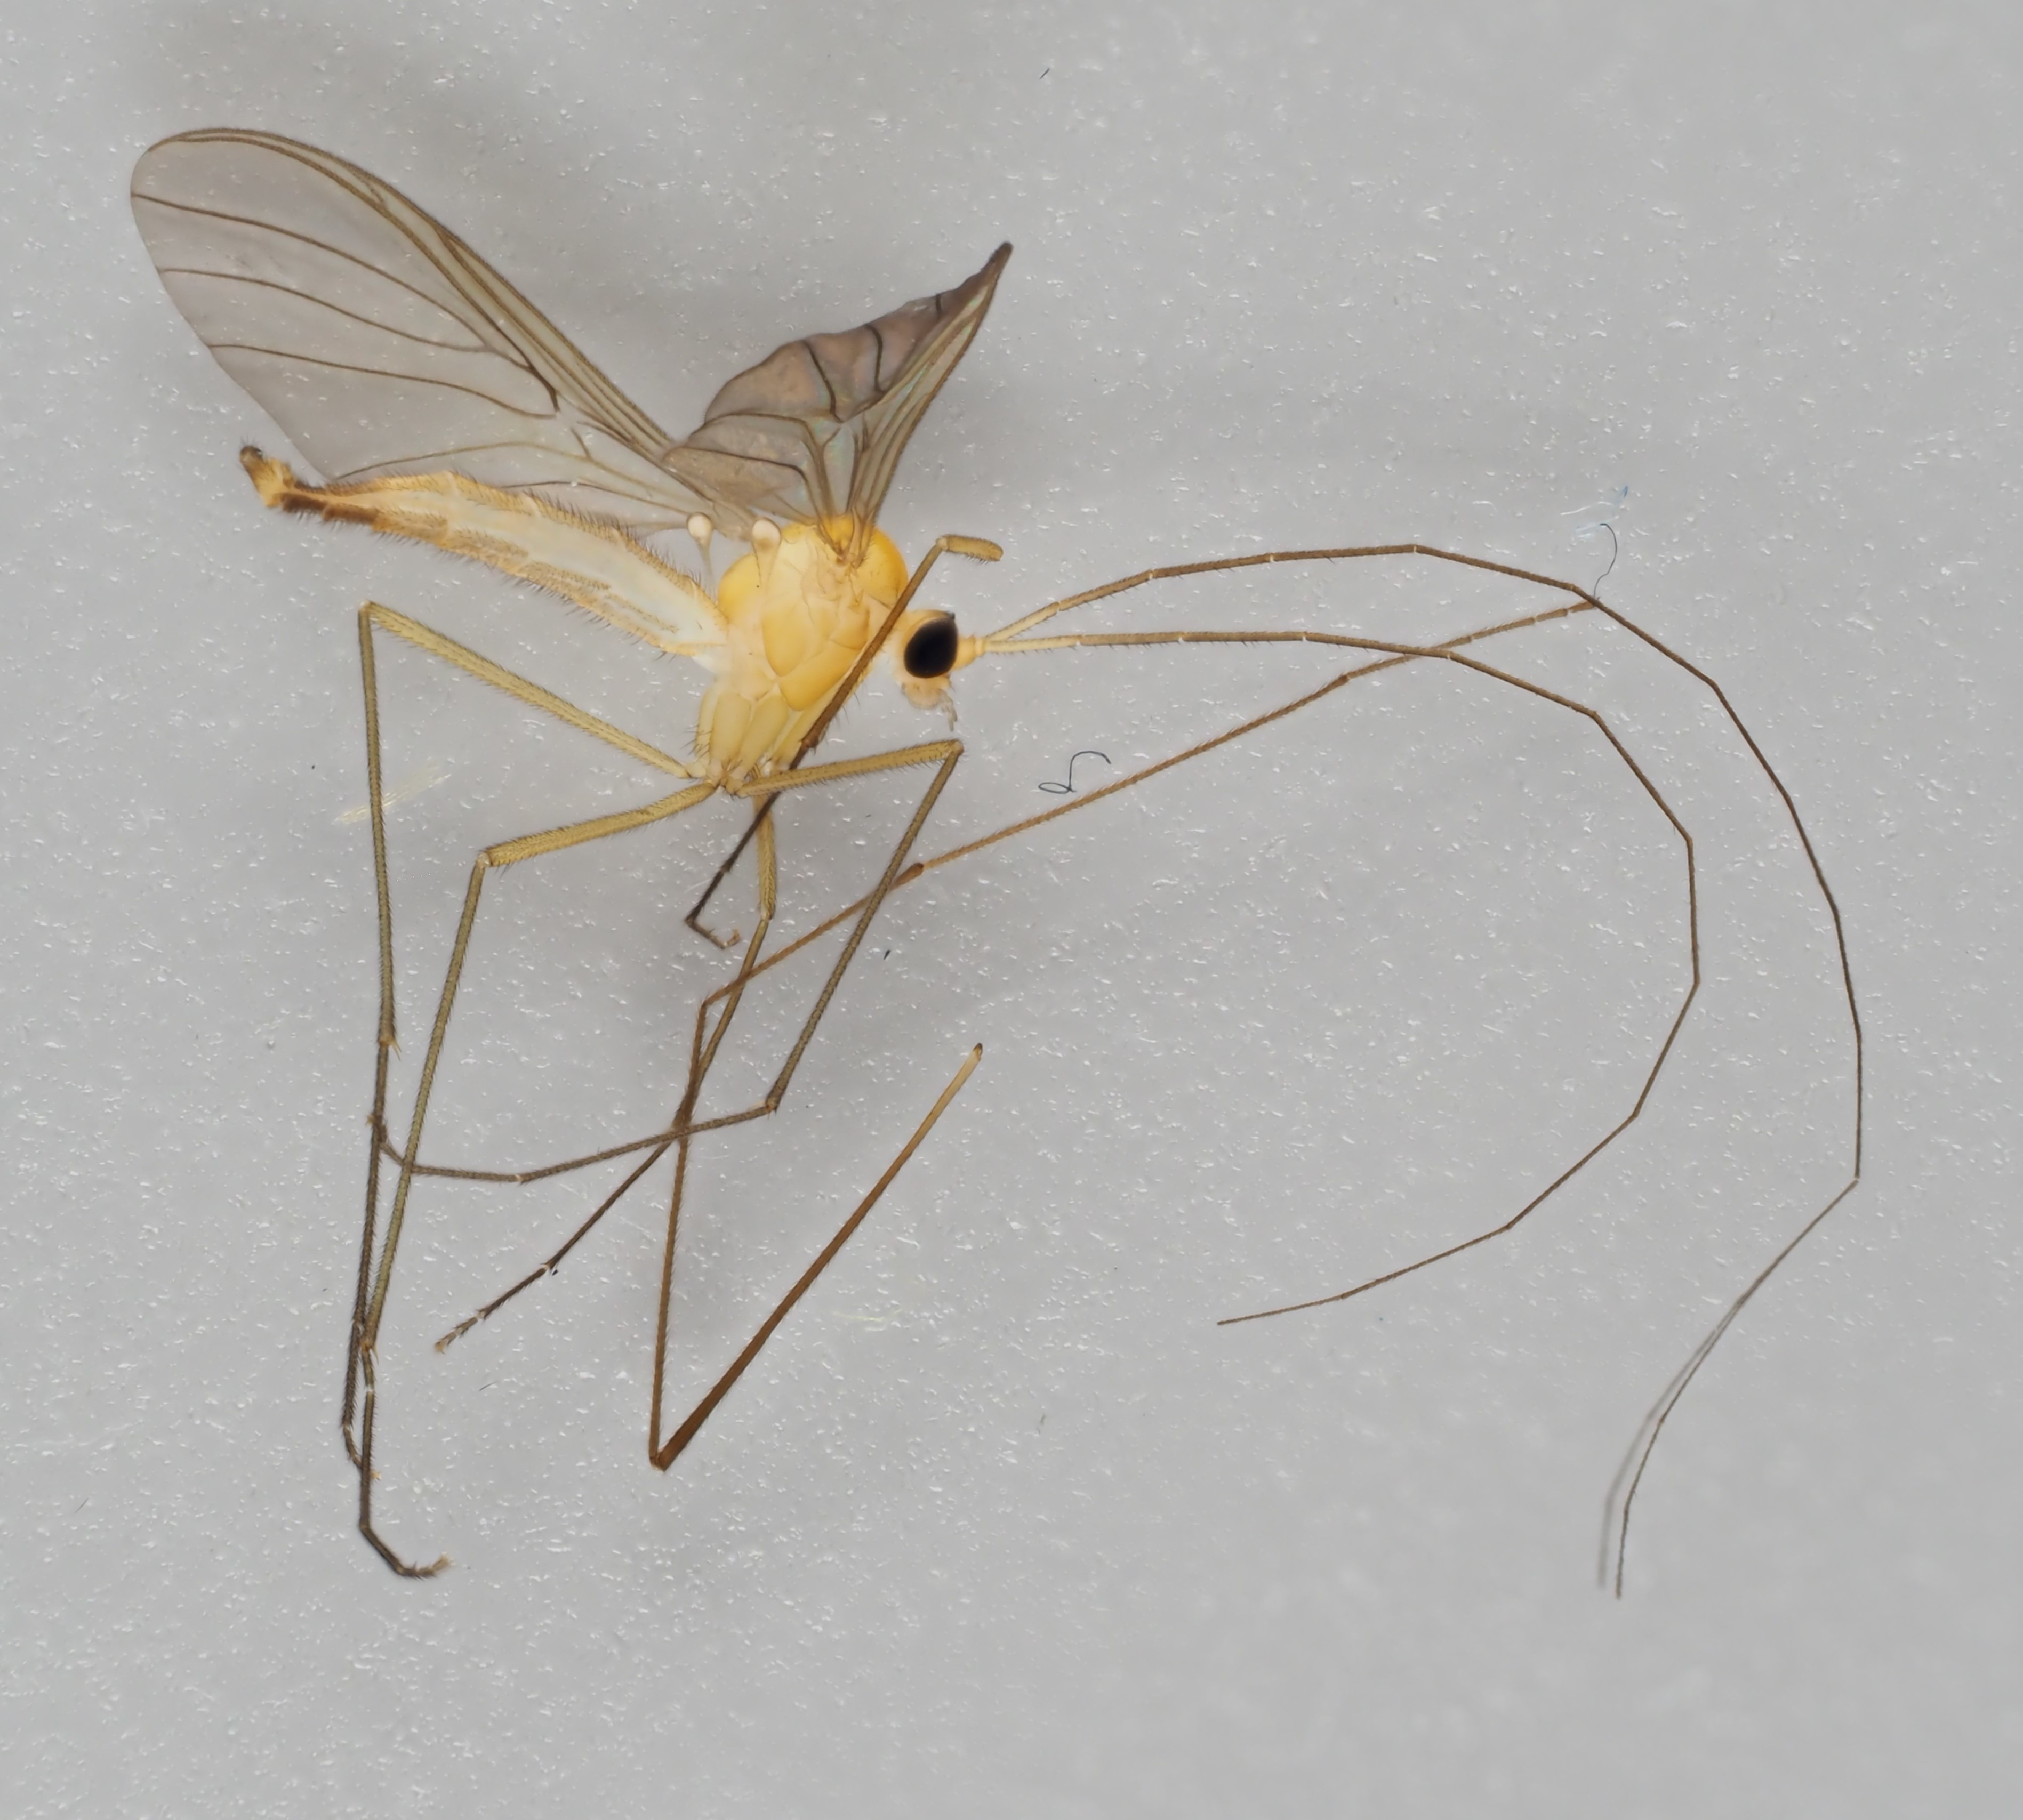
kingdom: Animalia
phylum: Arthropoda
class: Insecta
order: Diptera
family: Keroplatidae
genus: Macrocera
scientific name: Macrocera lutea
